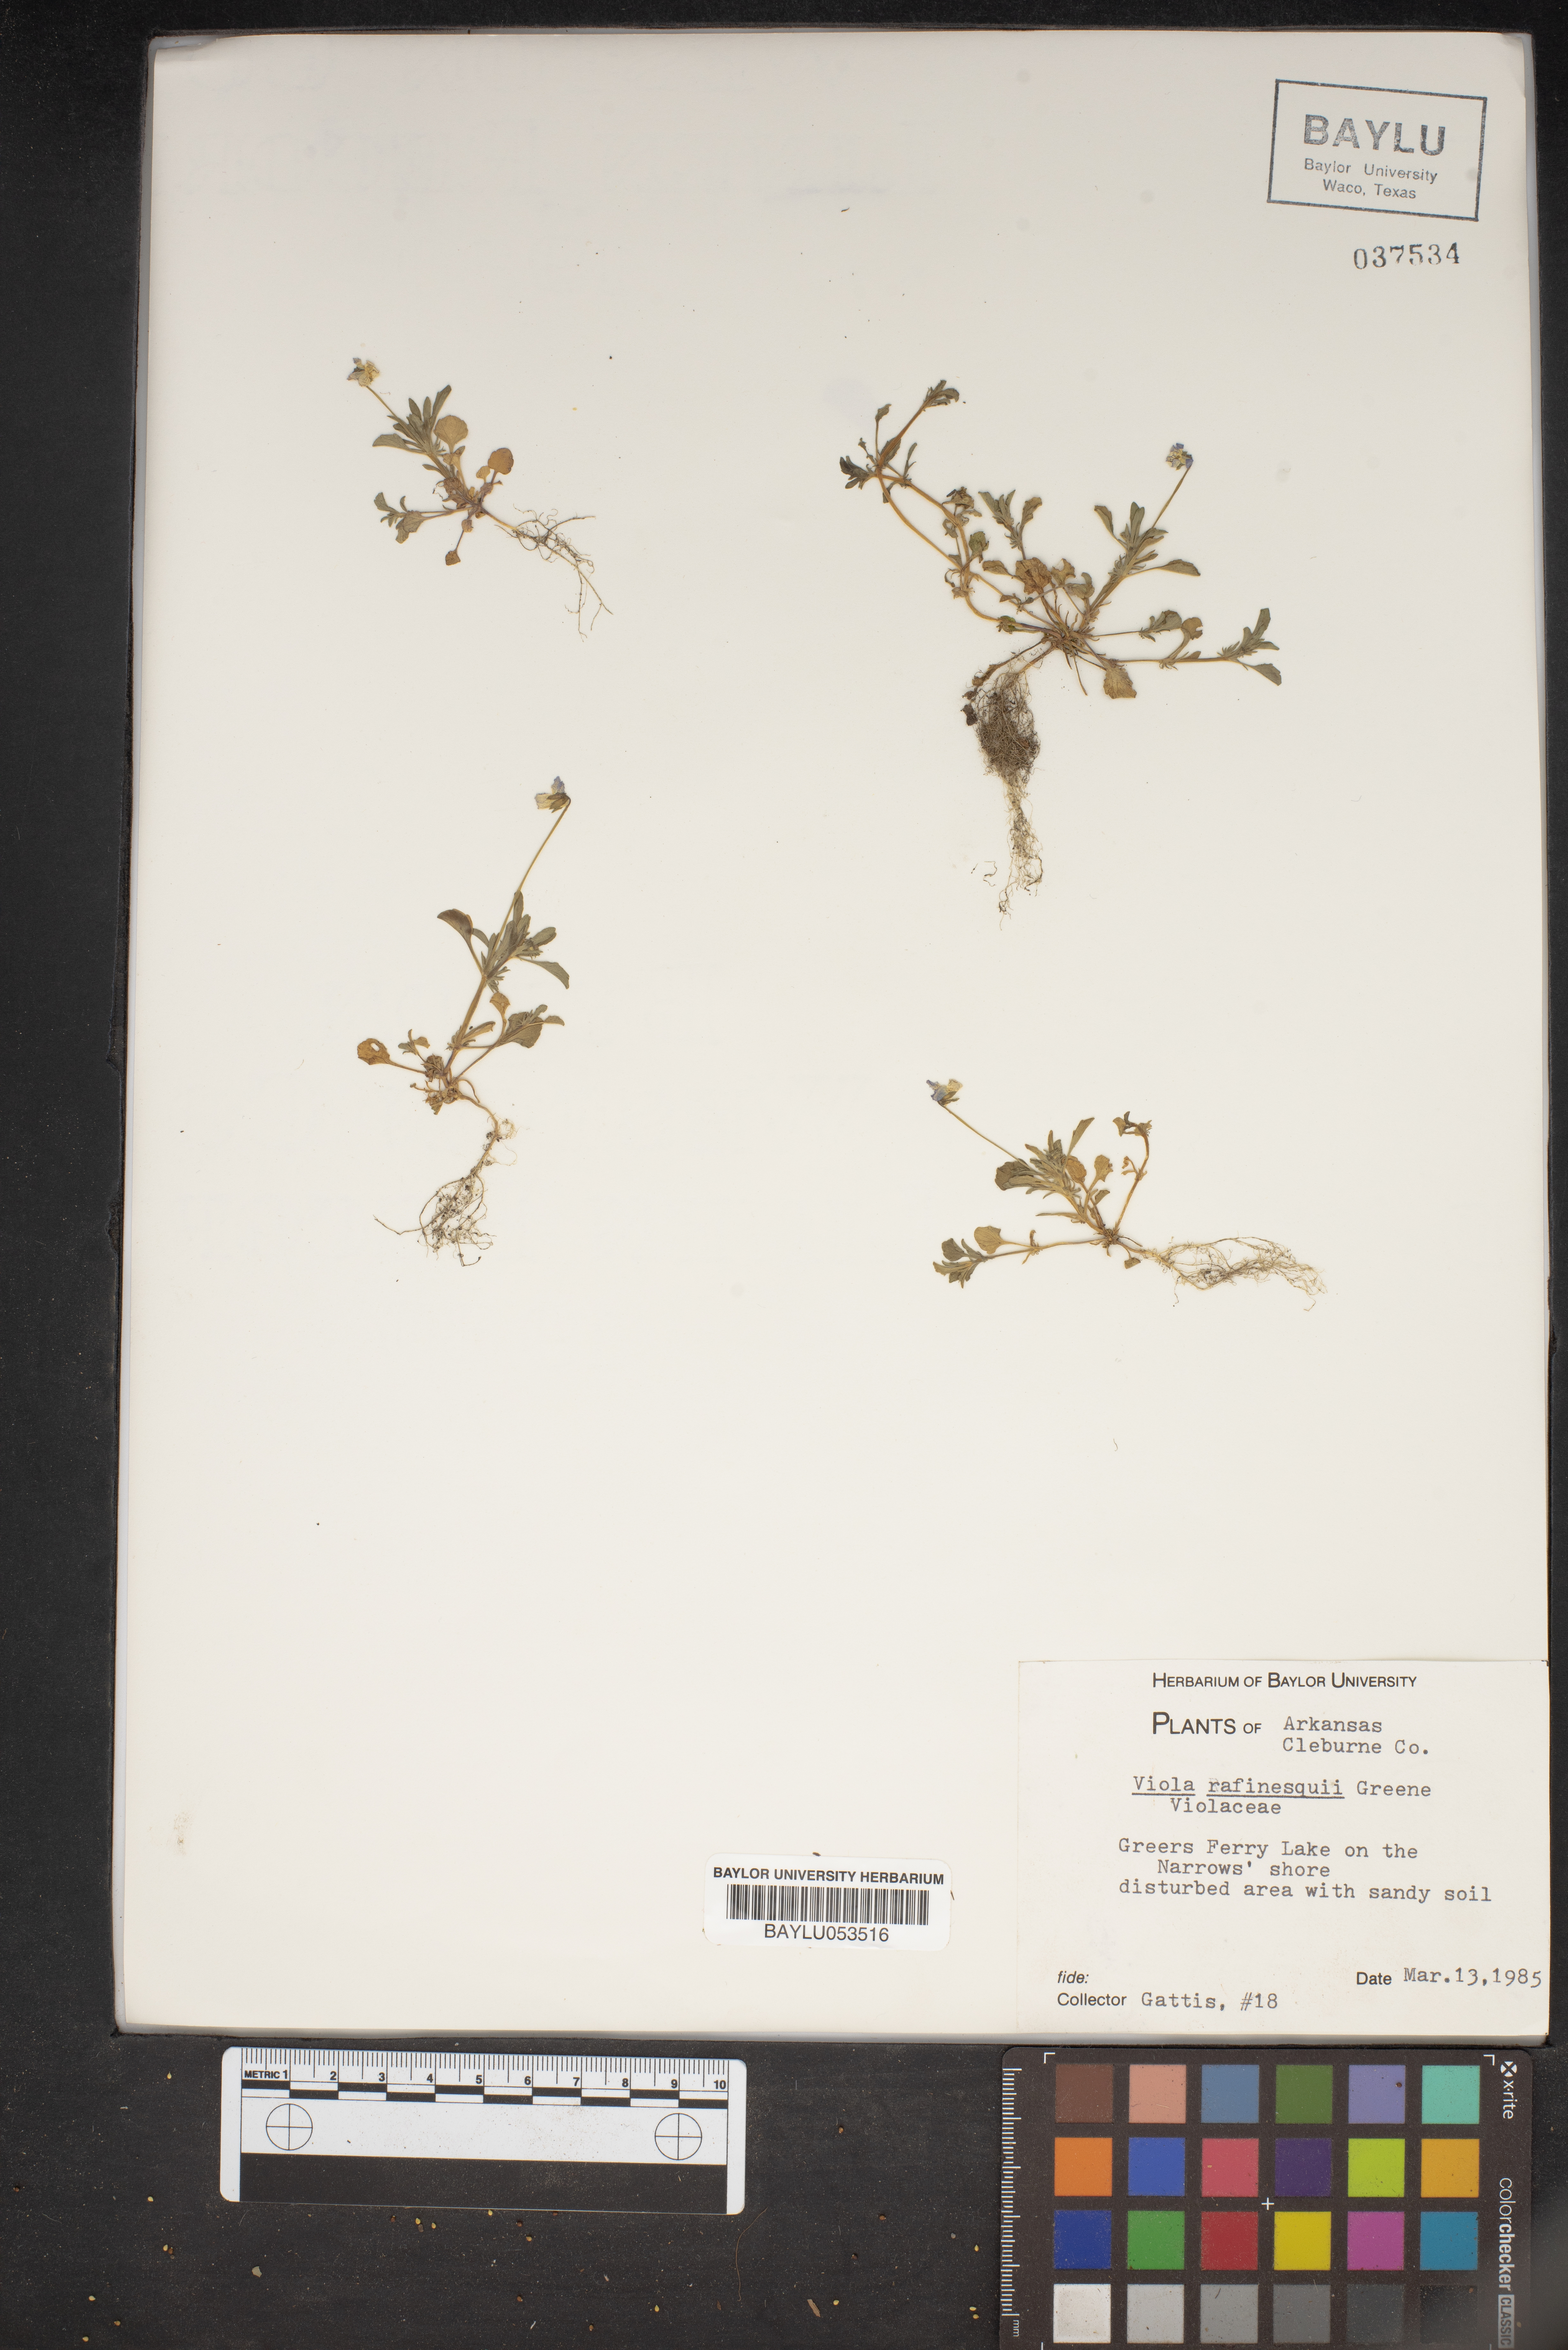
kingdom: Plantae
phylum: Tracheophyta
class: Magnoliopsida
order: Malpighiales
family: Violaceae
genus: Viola
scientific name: Viola rafinesquei
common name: American field pansy
